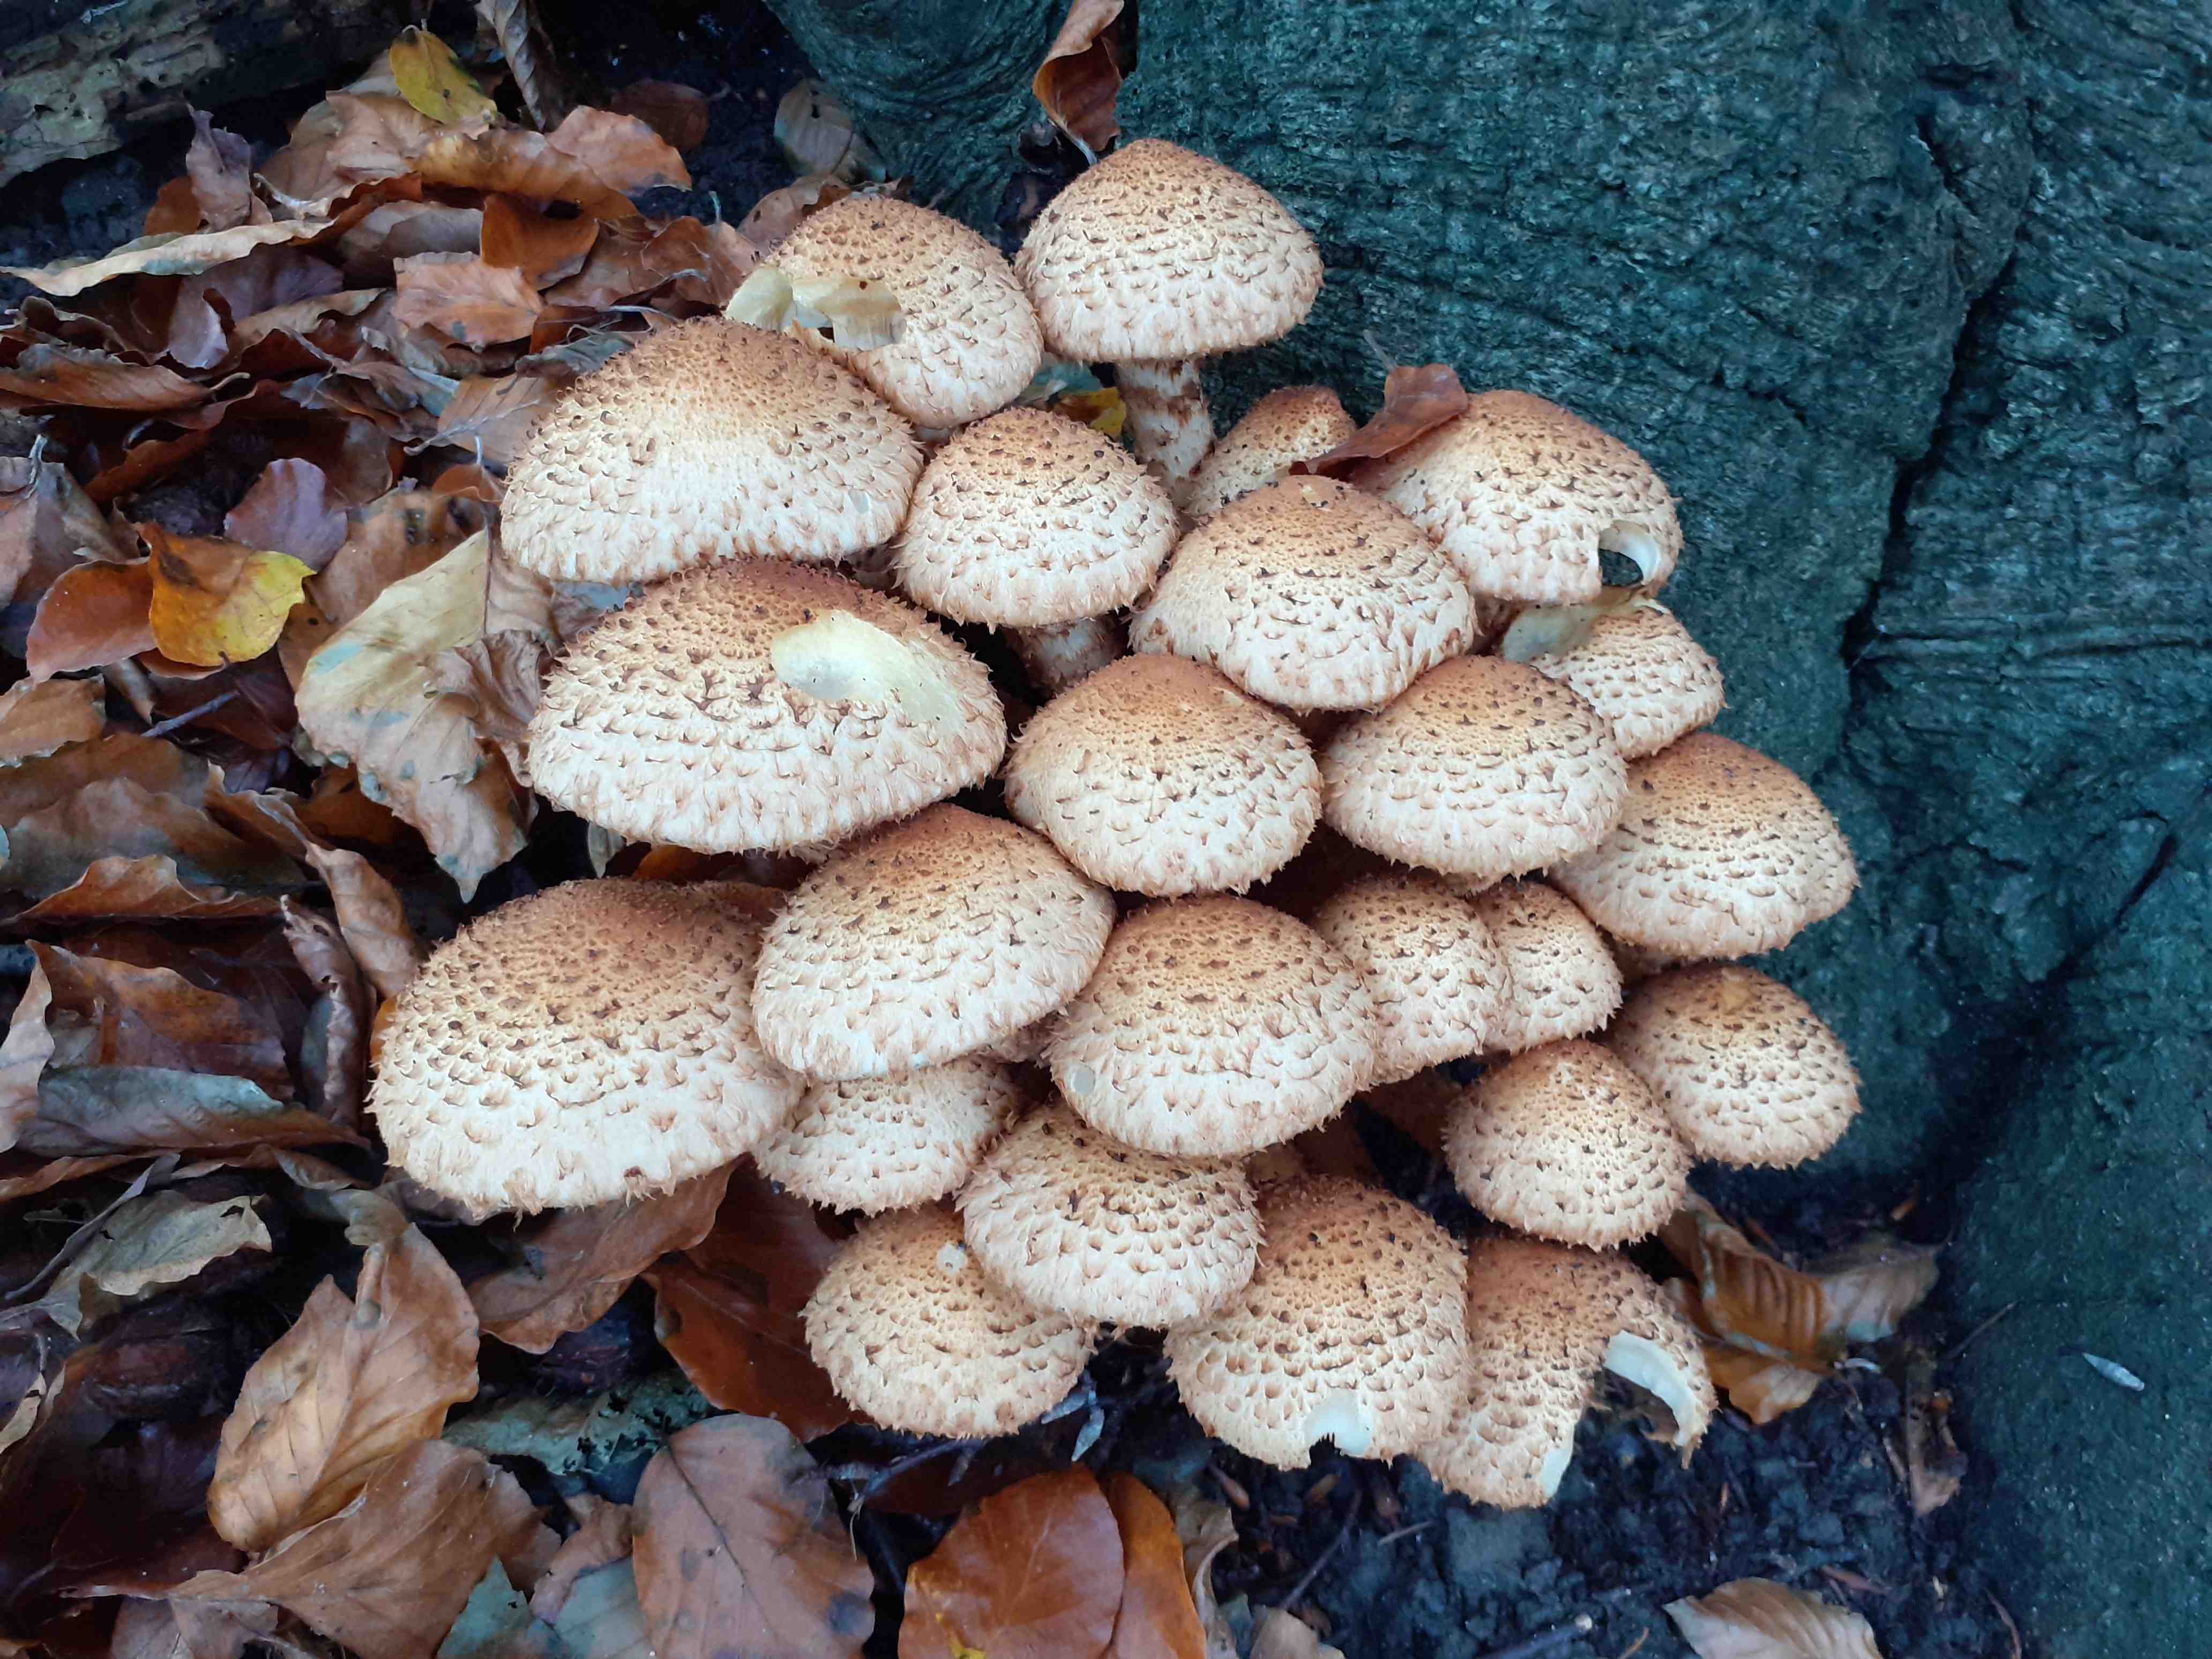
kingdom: Fungi
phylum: Basidiomycota
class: Agaricomycetes
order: Agaricales
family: Strophariaceae
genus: Pholiota
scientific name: Pholiota squarrosa
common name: krumskællet skælhat
